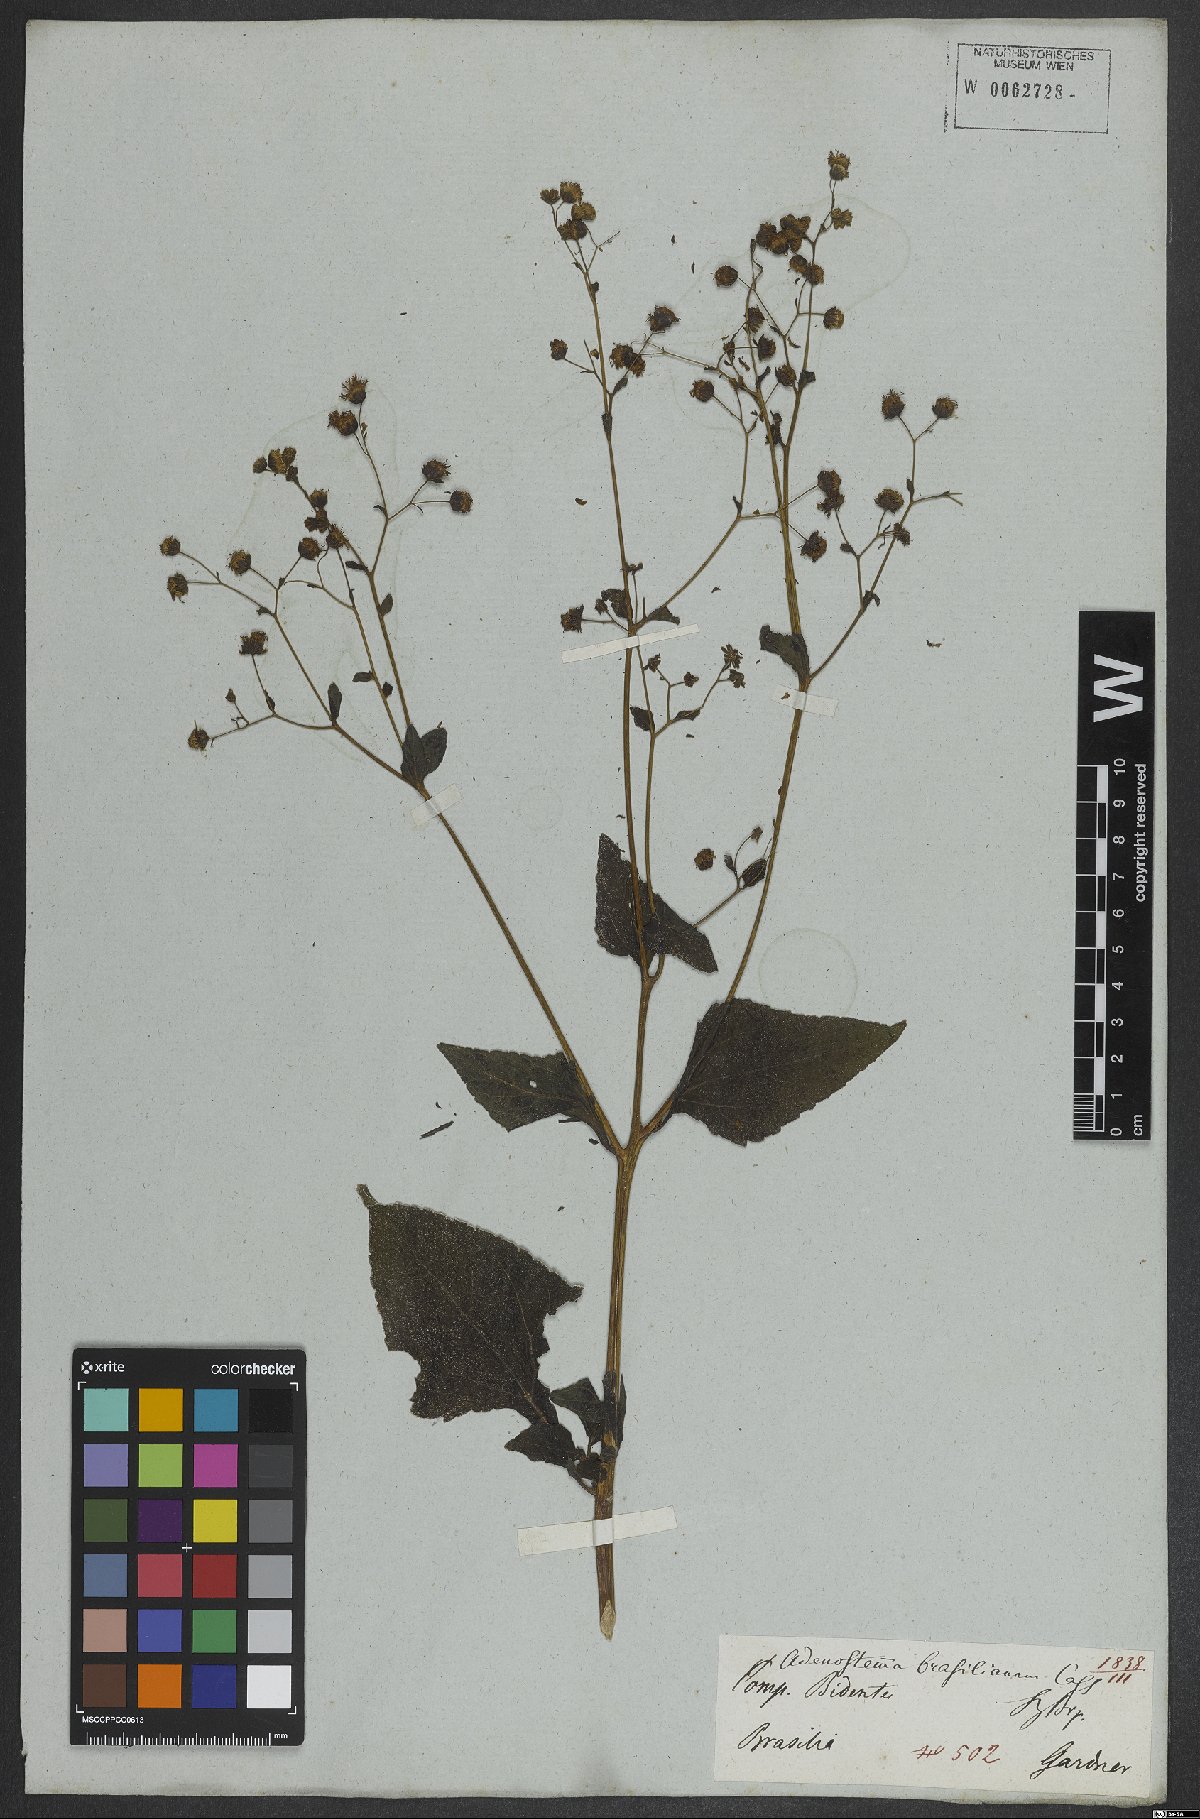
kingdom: Plantae
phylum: Tracheophyta
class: Magnoliopsida
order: Asterales
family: Asteraceae
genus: Adenostemma
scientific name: Adenostemma brasilianum
